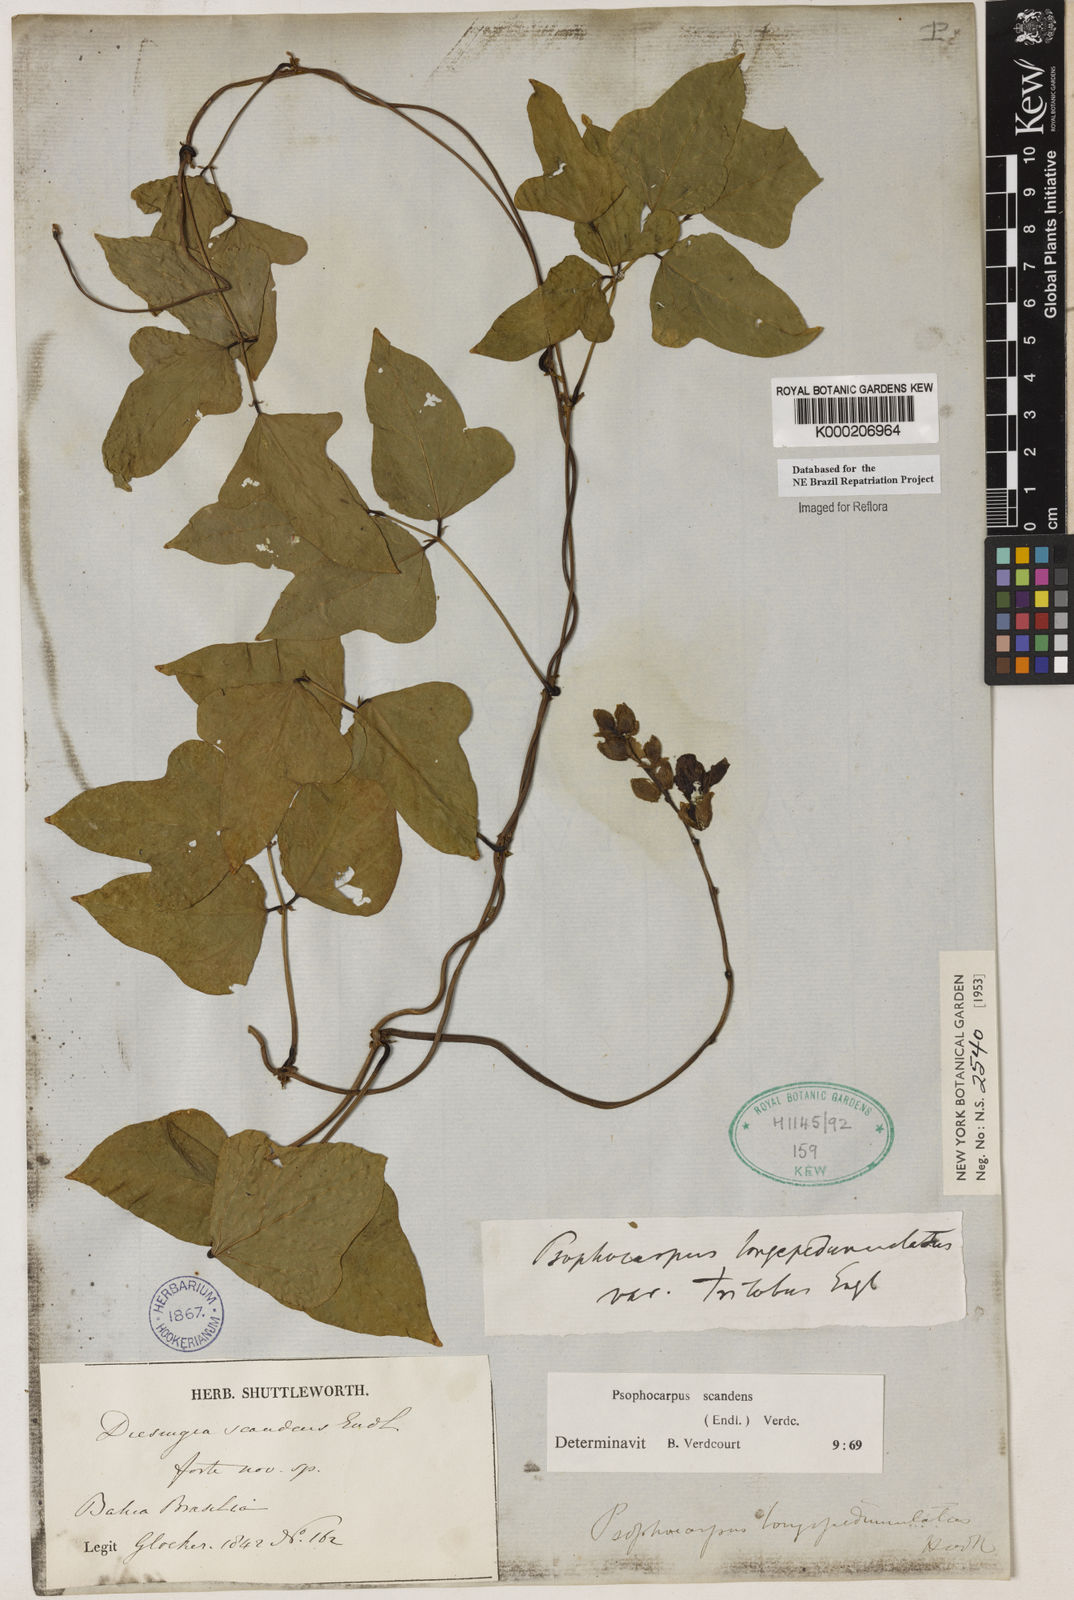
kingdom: Plantae
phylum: Tracheophyta
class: Magnoliopsida
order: Fabales
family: Fabaceae
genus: Psophocarpus
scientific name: Psophocarpus palustris
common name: African winged-bean
